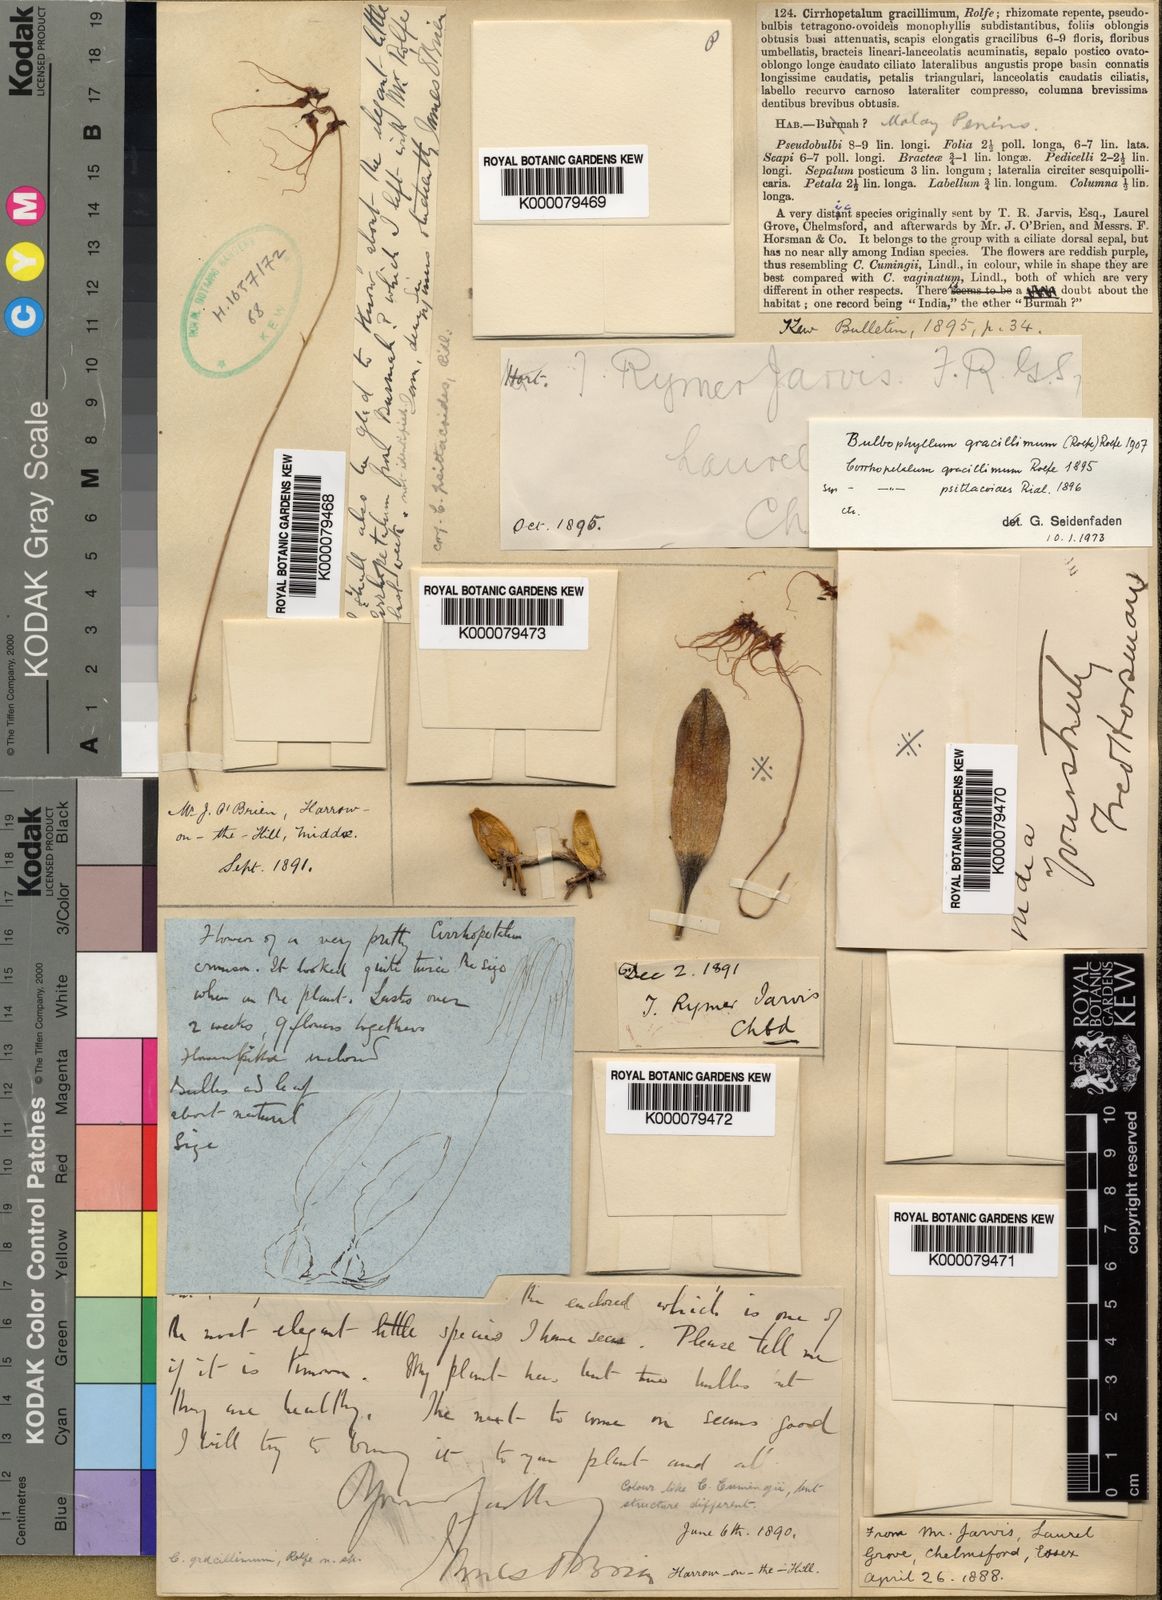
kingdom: Plantae
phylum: Tracheophyta
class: Liliopsida
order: Asparagales
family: Orchidaceae
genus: Bulbophyllum
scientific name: Bulbophyllum gracillimum
